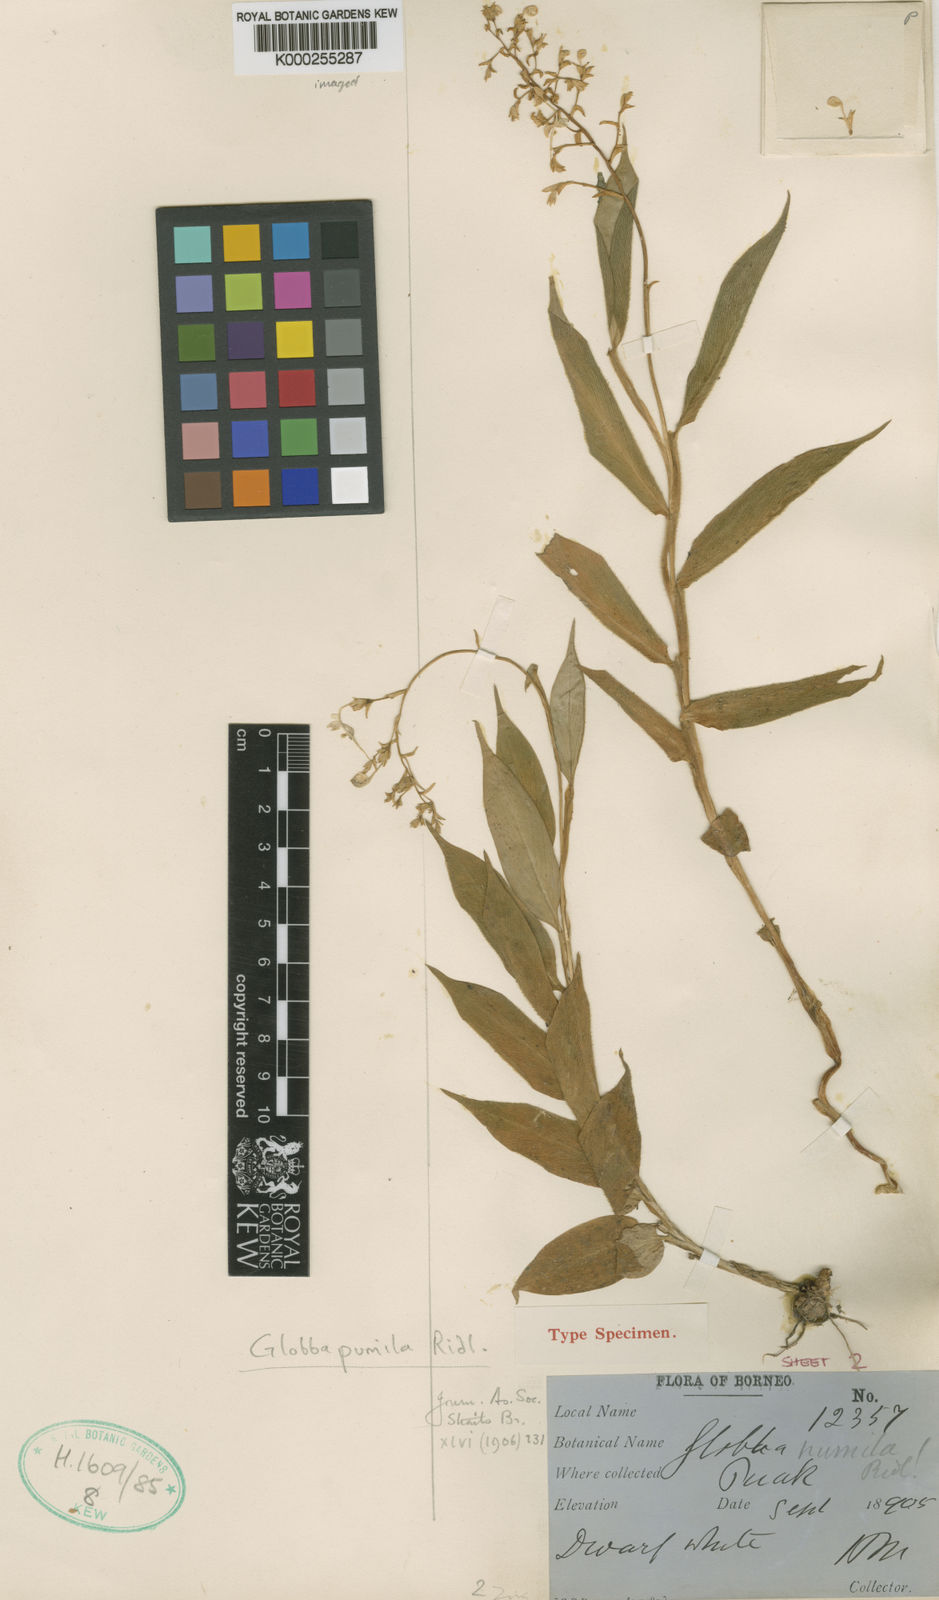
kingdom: Plantae
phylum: Tracheophyta
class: Liliopsida
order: Zingiberales
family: Zingiberaceae
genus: Globba
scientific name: Globba pumila
